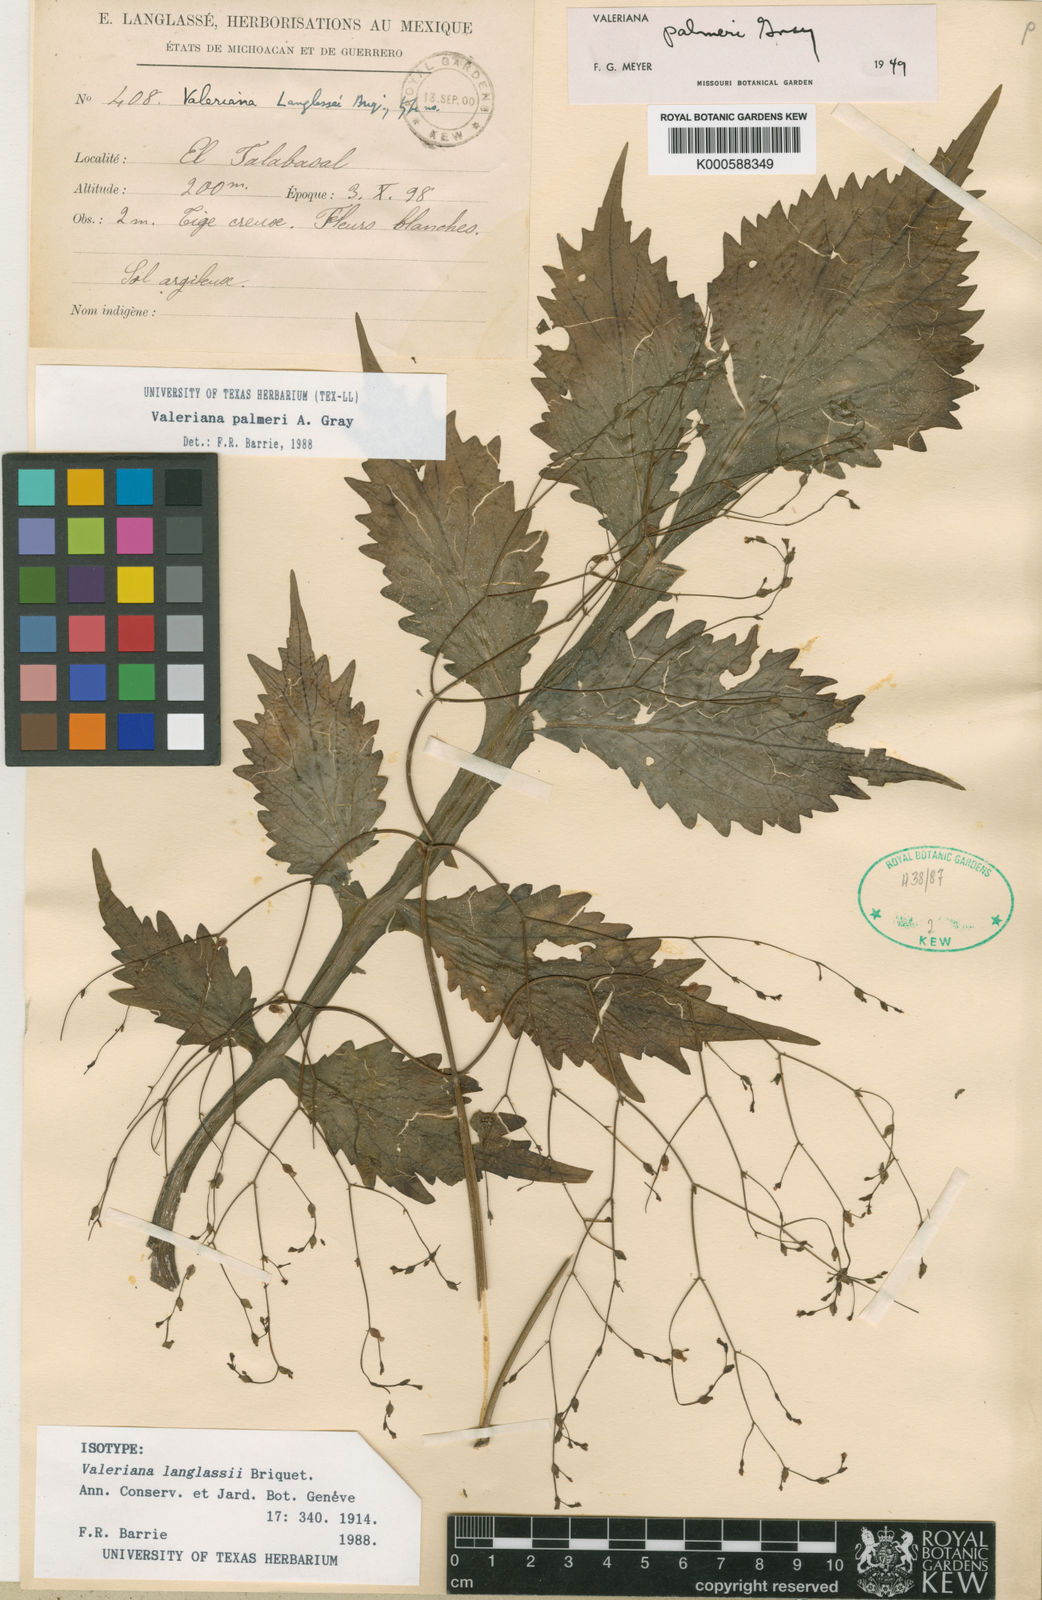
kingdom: Plantae
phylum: Tracheophyta
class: Magnoliopsida
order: Dipsacales
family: Caprifoliaceae
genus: Valeriana
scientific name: Valeriana palmeri
